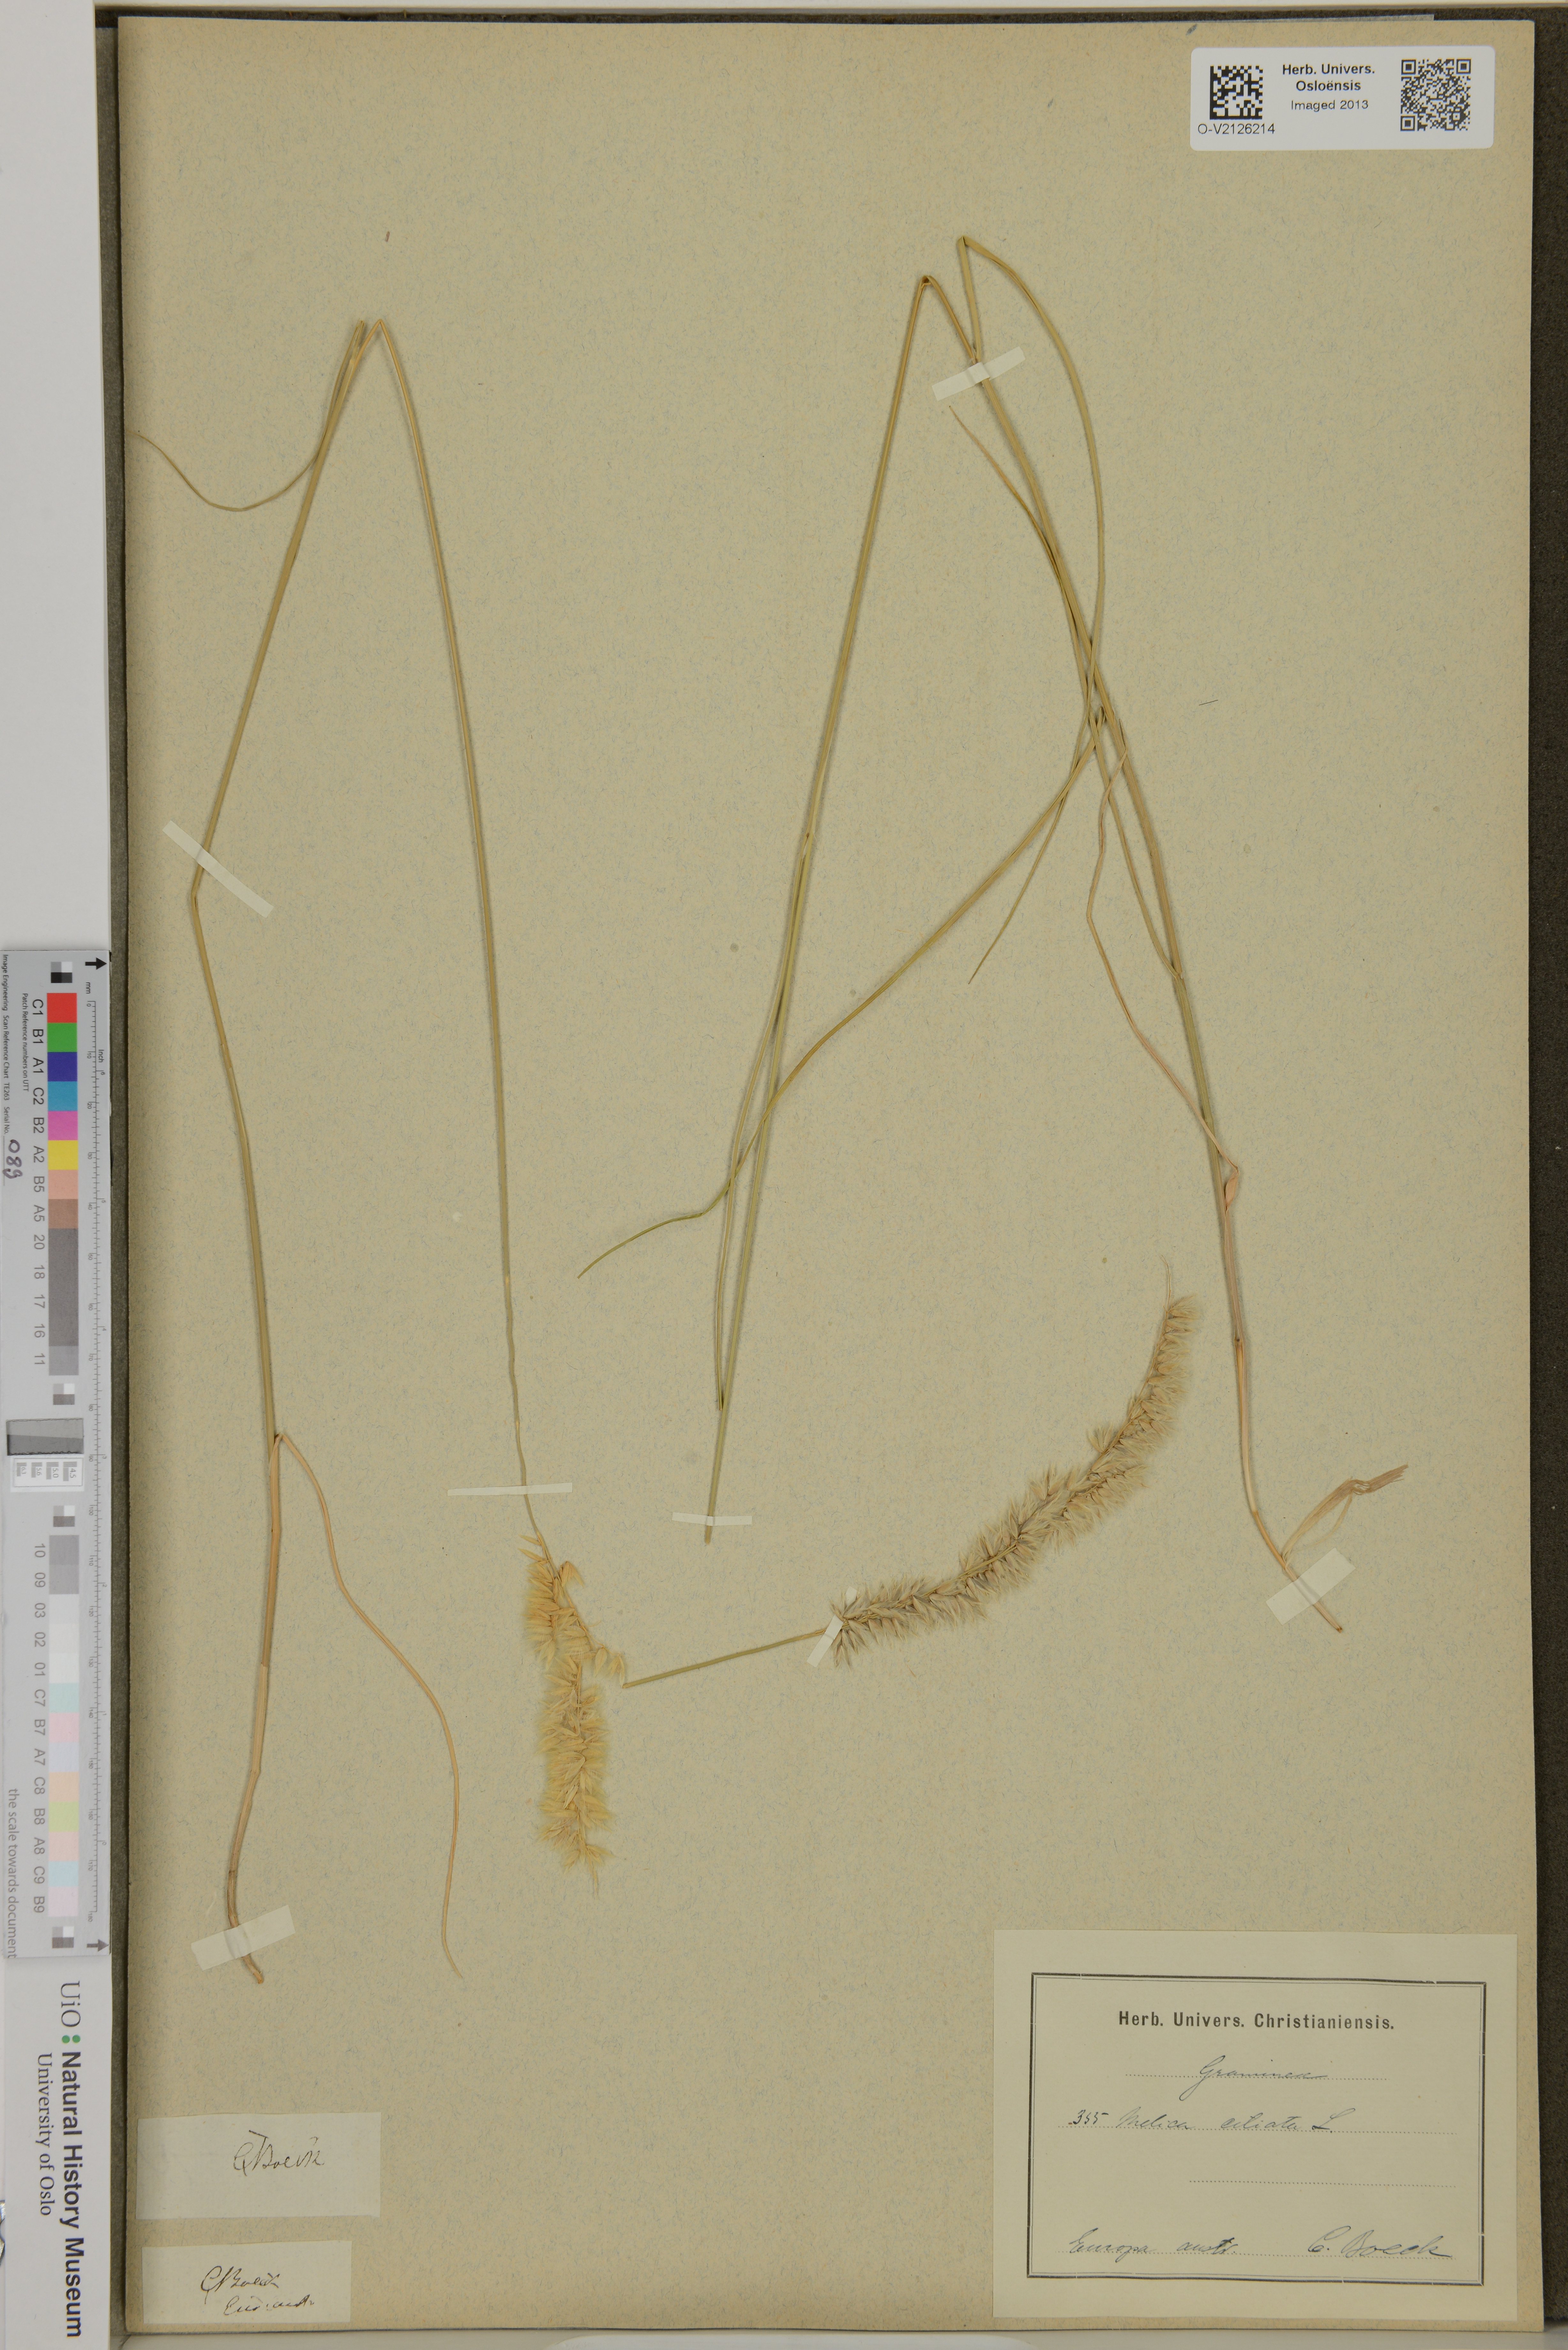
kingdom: Plantae
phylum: Tracheophyta
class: Liliopsida
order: Poales
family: Poaceae
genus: Melica
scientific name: Melica ciliata
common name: Hairy melicgrass
